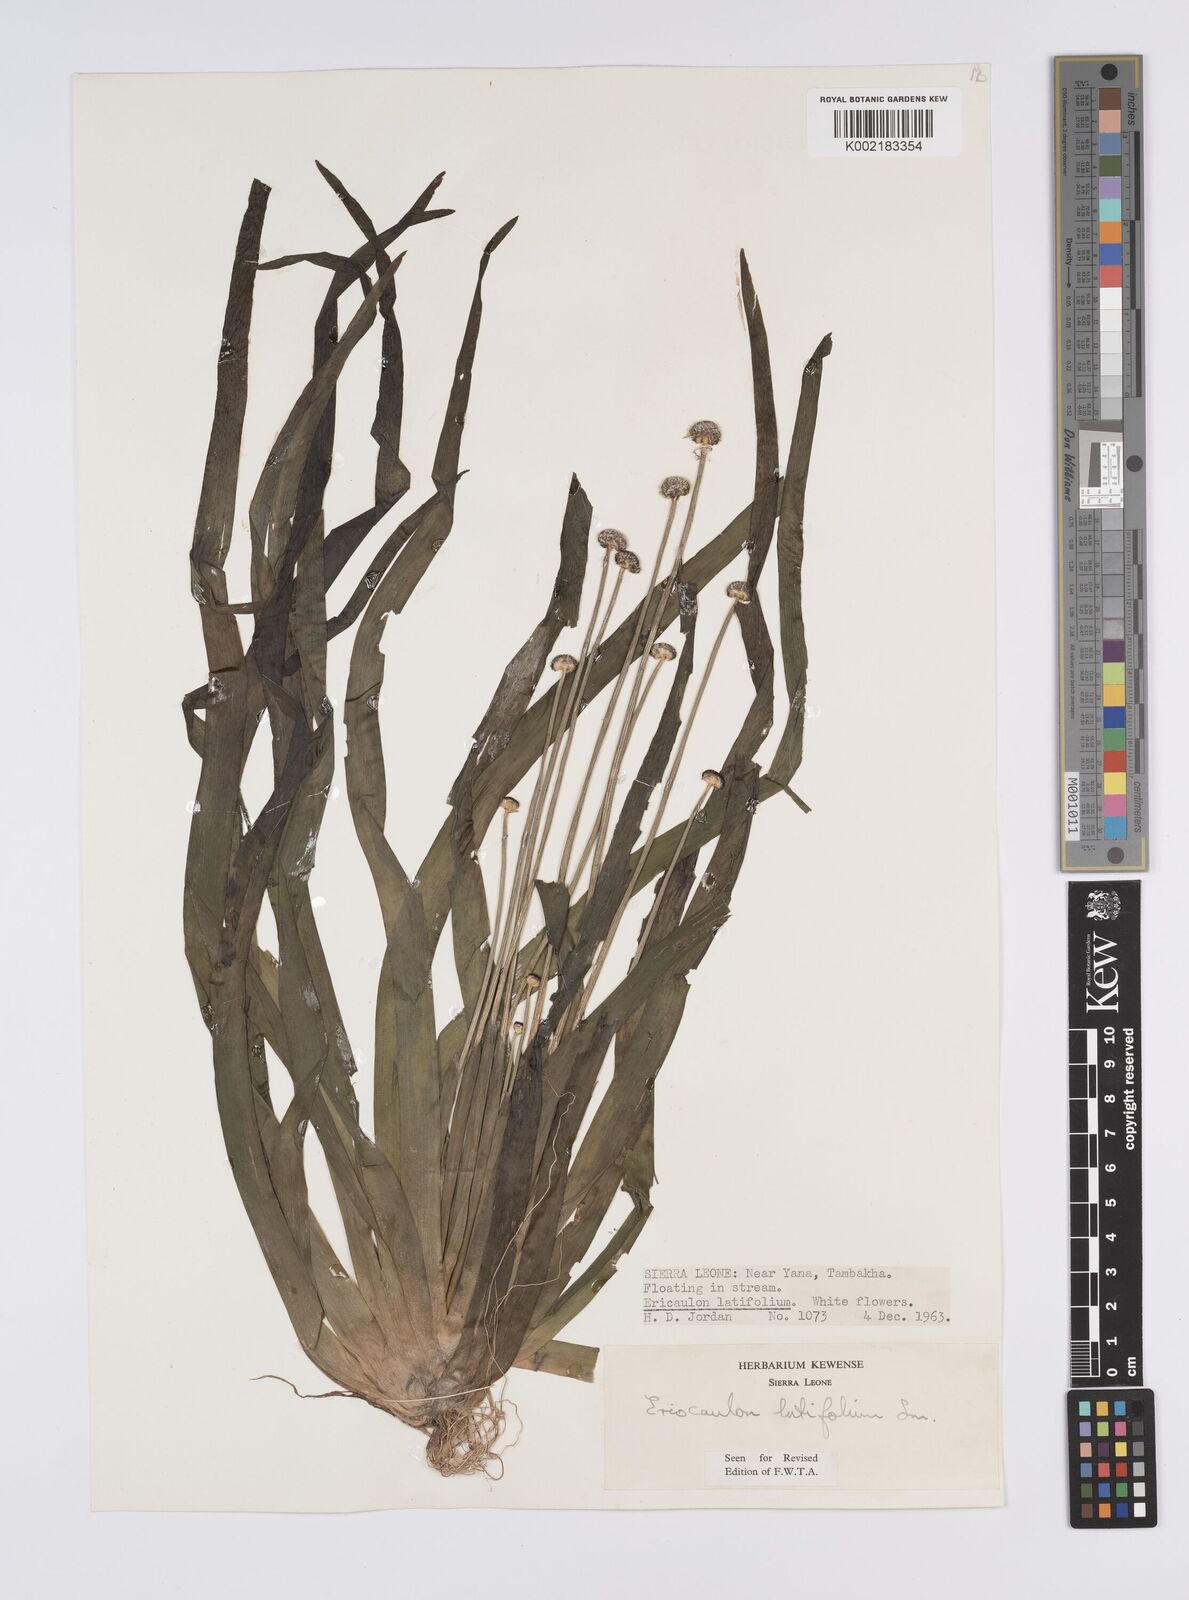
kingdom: Plantae
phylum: Tracheophyta
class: Liliopsida
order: Poales
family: Eriocaulaceae
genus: Eriocaulon
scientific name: Eriocaulon latifolium
